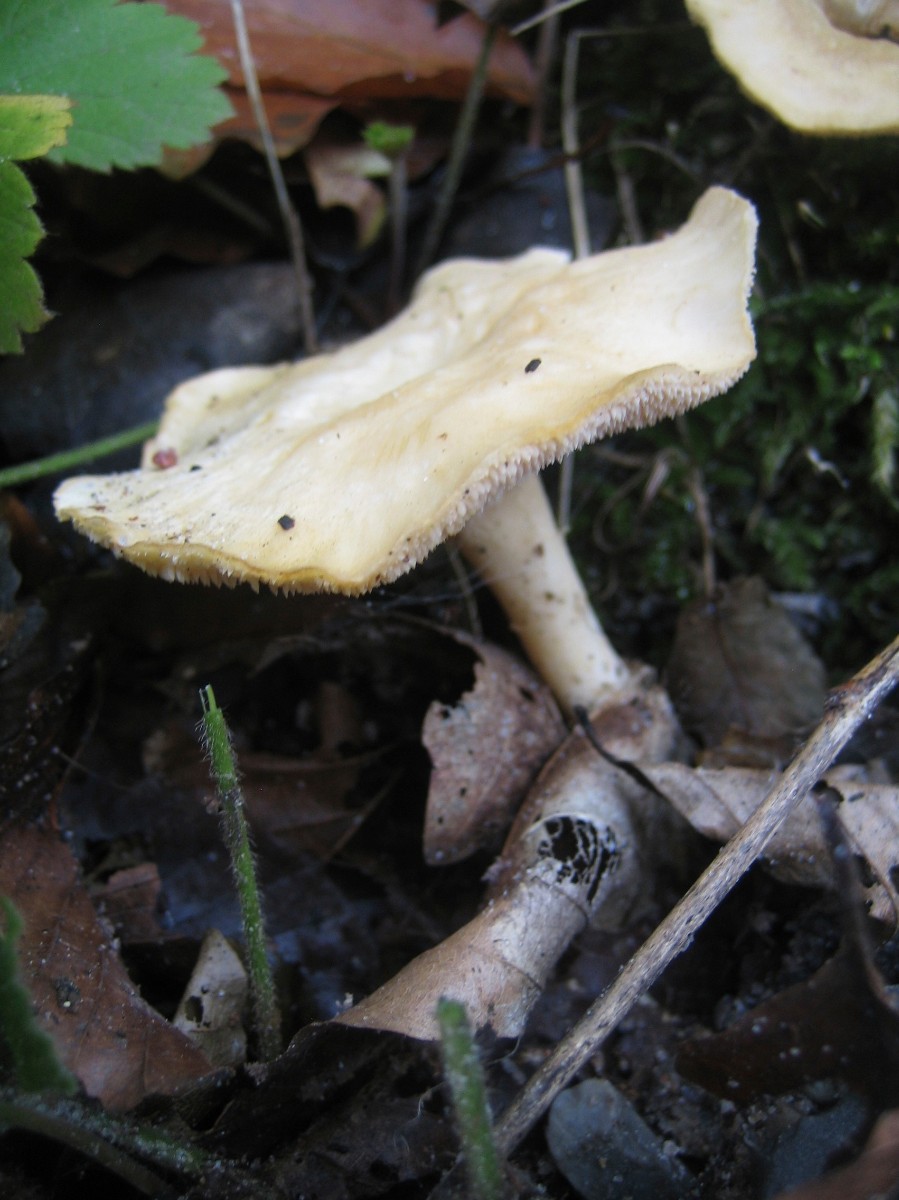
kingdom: Fungi
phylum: Basidiomycota
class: Agaricomycetes
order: Cantharellales
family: Hydnaceae
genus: Hydnum
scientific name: Hydnum vesterholtii
